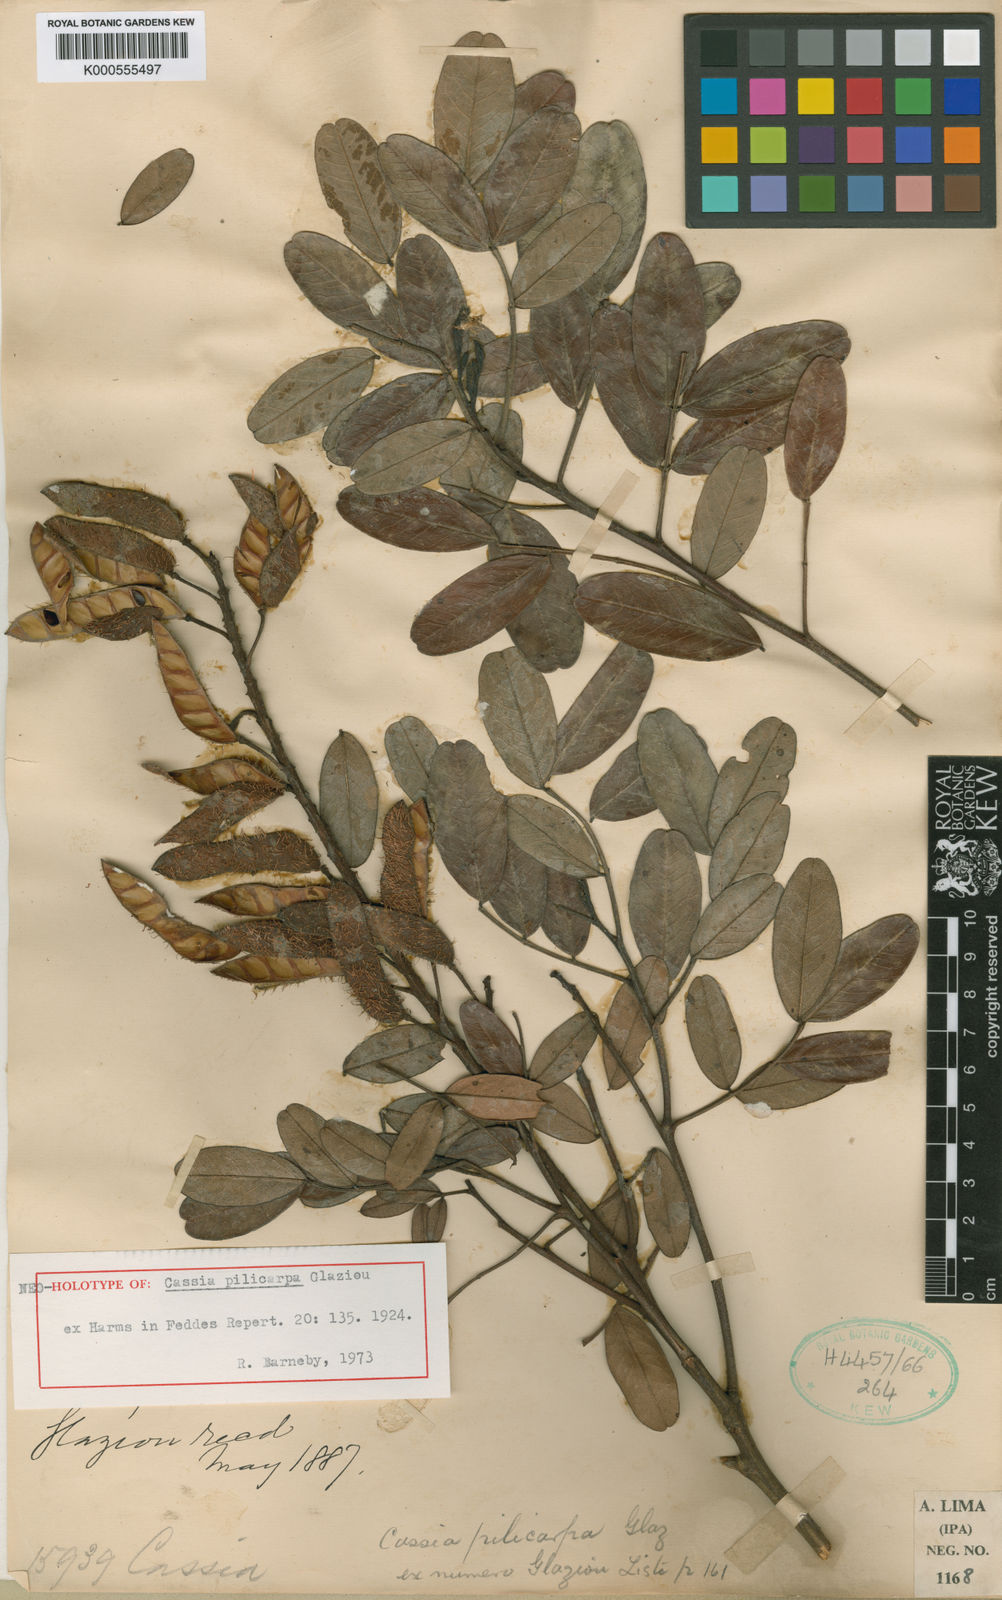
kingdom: Plantae
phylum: Tracheophyta
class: Magnoliopsida
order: Fabales
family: Fabaceae
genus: Chamaecrista
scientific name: Chamaecrista pilicarpa
